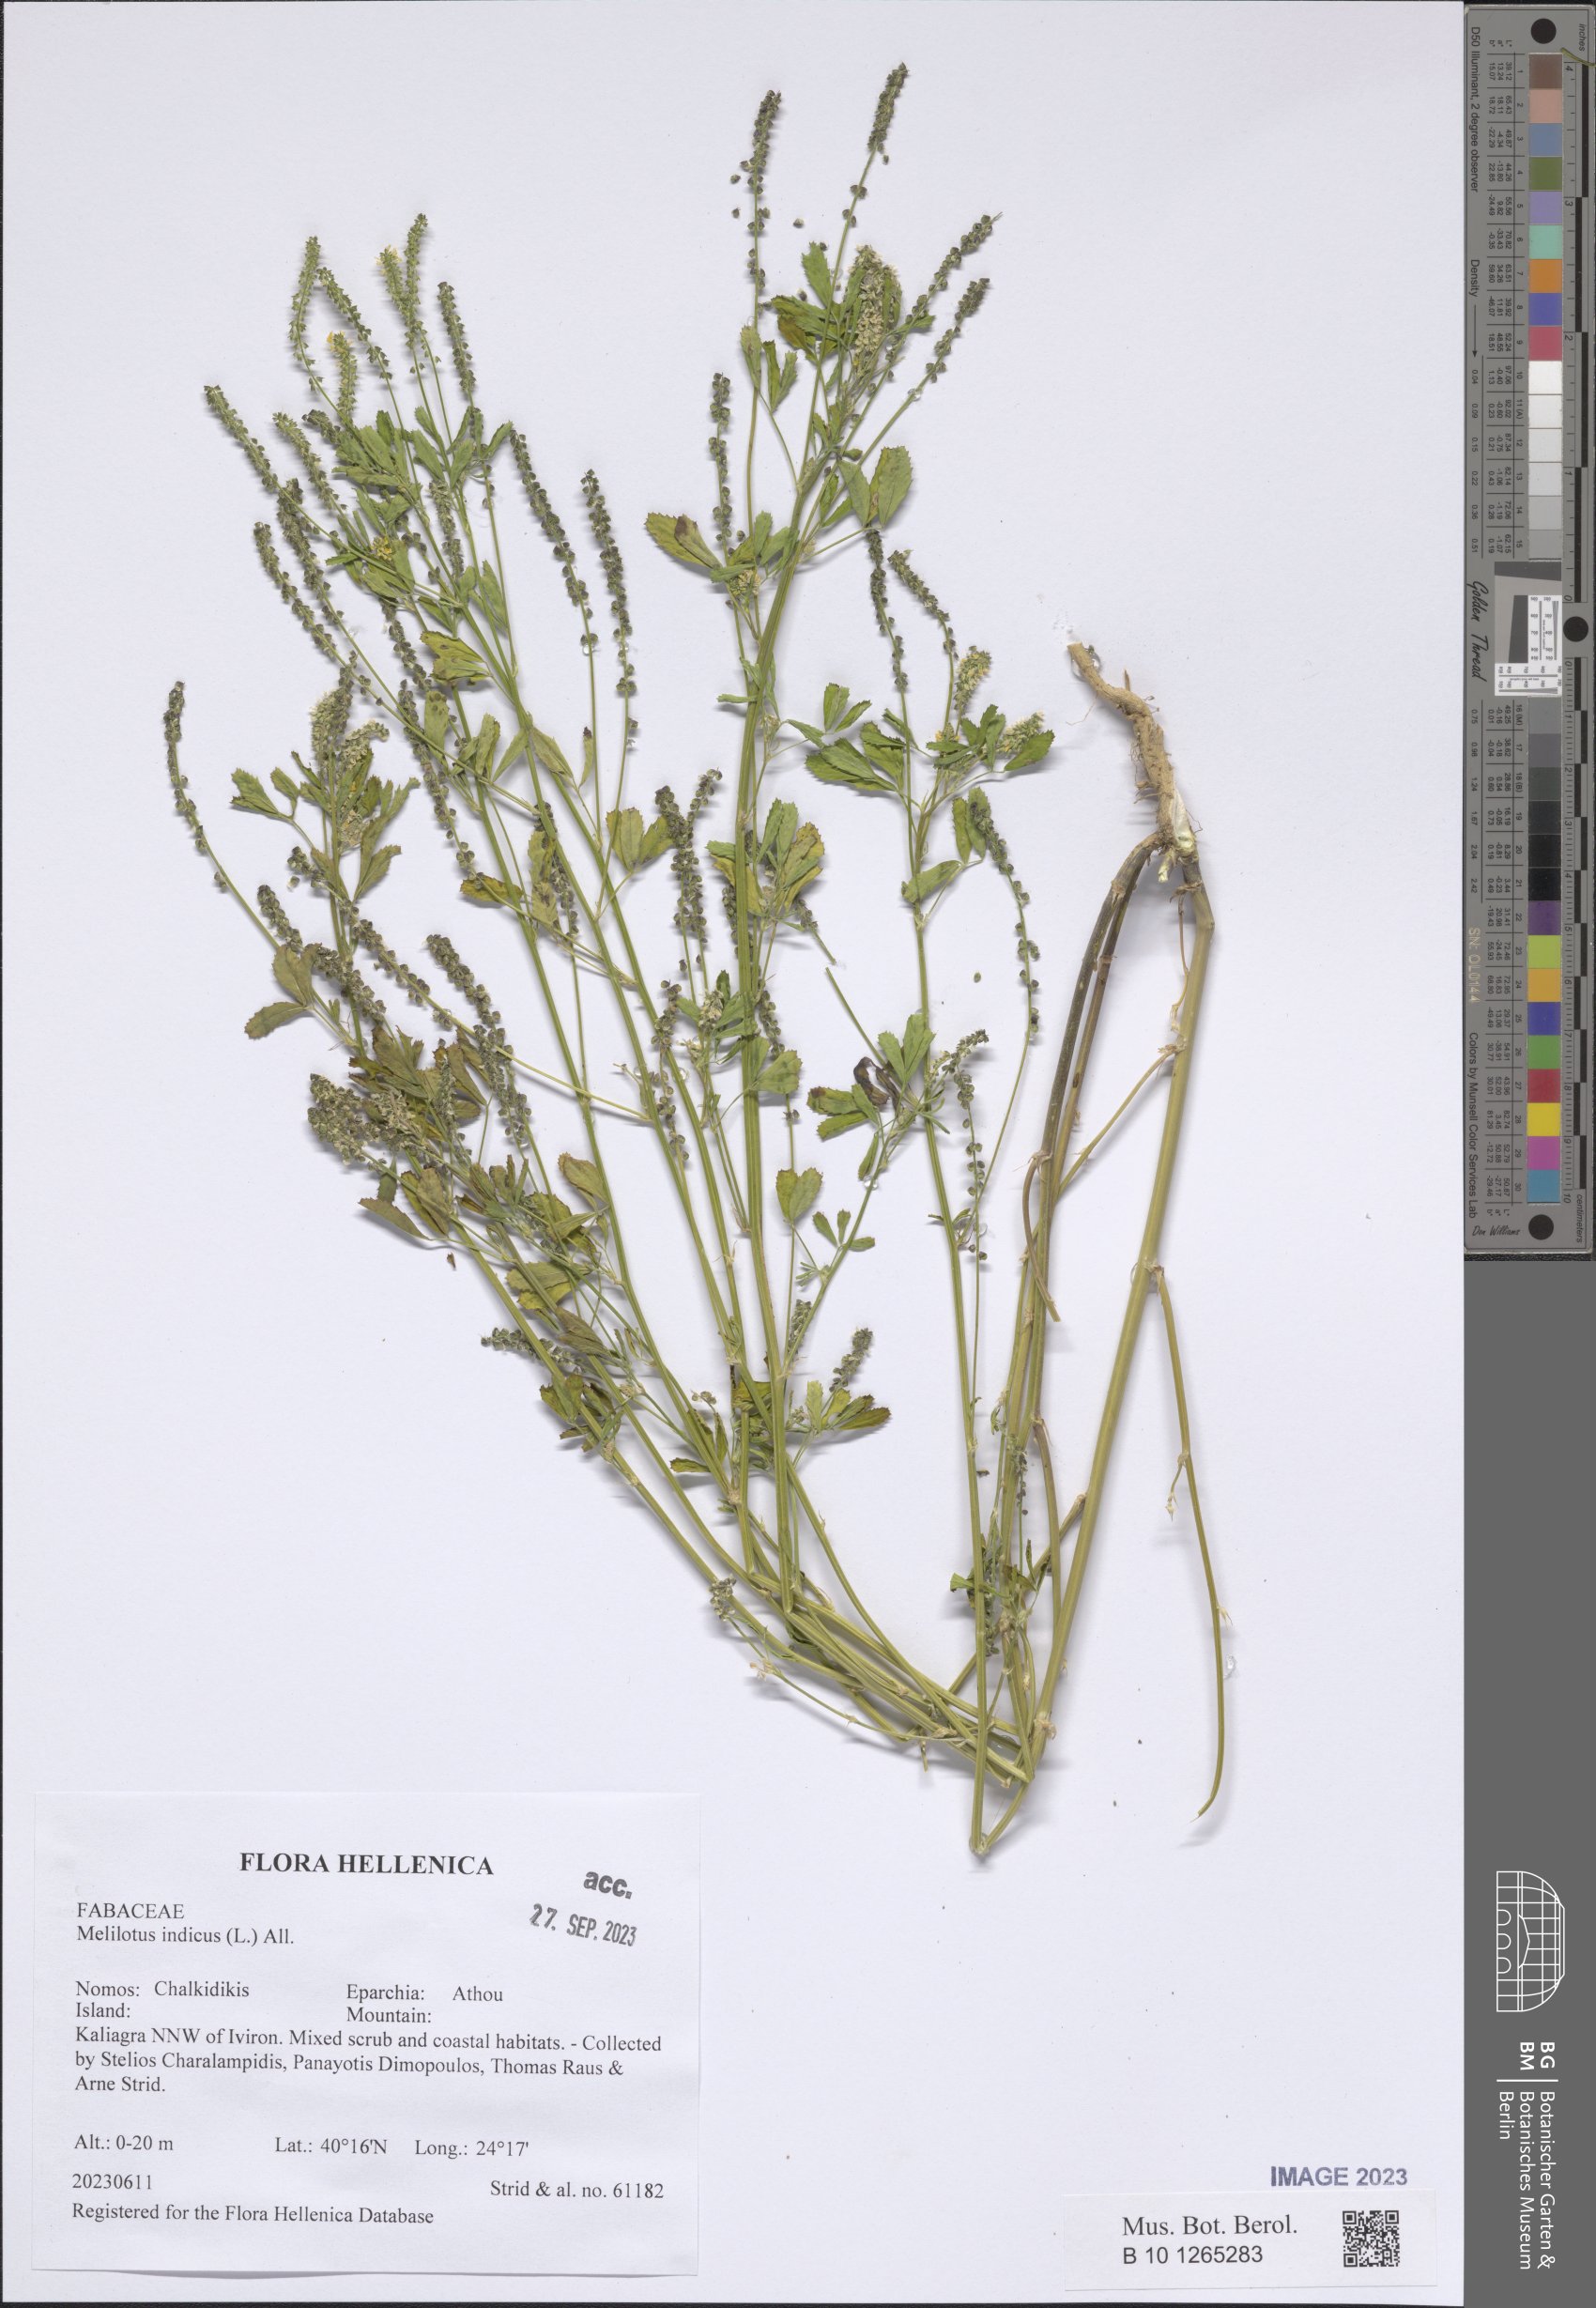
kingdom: Plantae
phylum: Tracheophyta
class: Magnoliopsida
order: Fabales
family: Fabaceae
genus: Melilotus
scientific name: Melilotus indicus
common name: Small melilot
